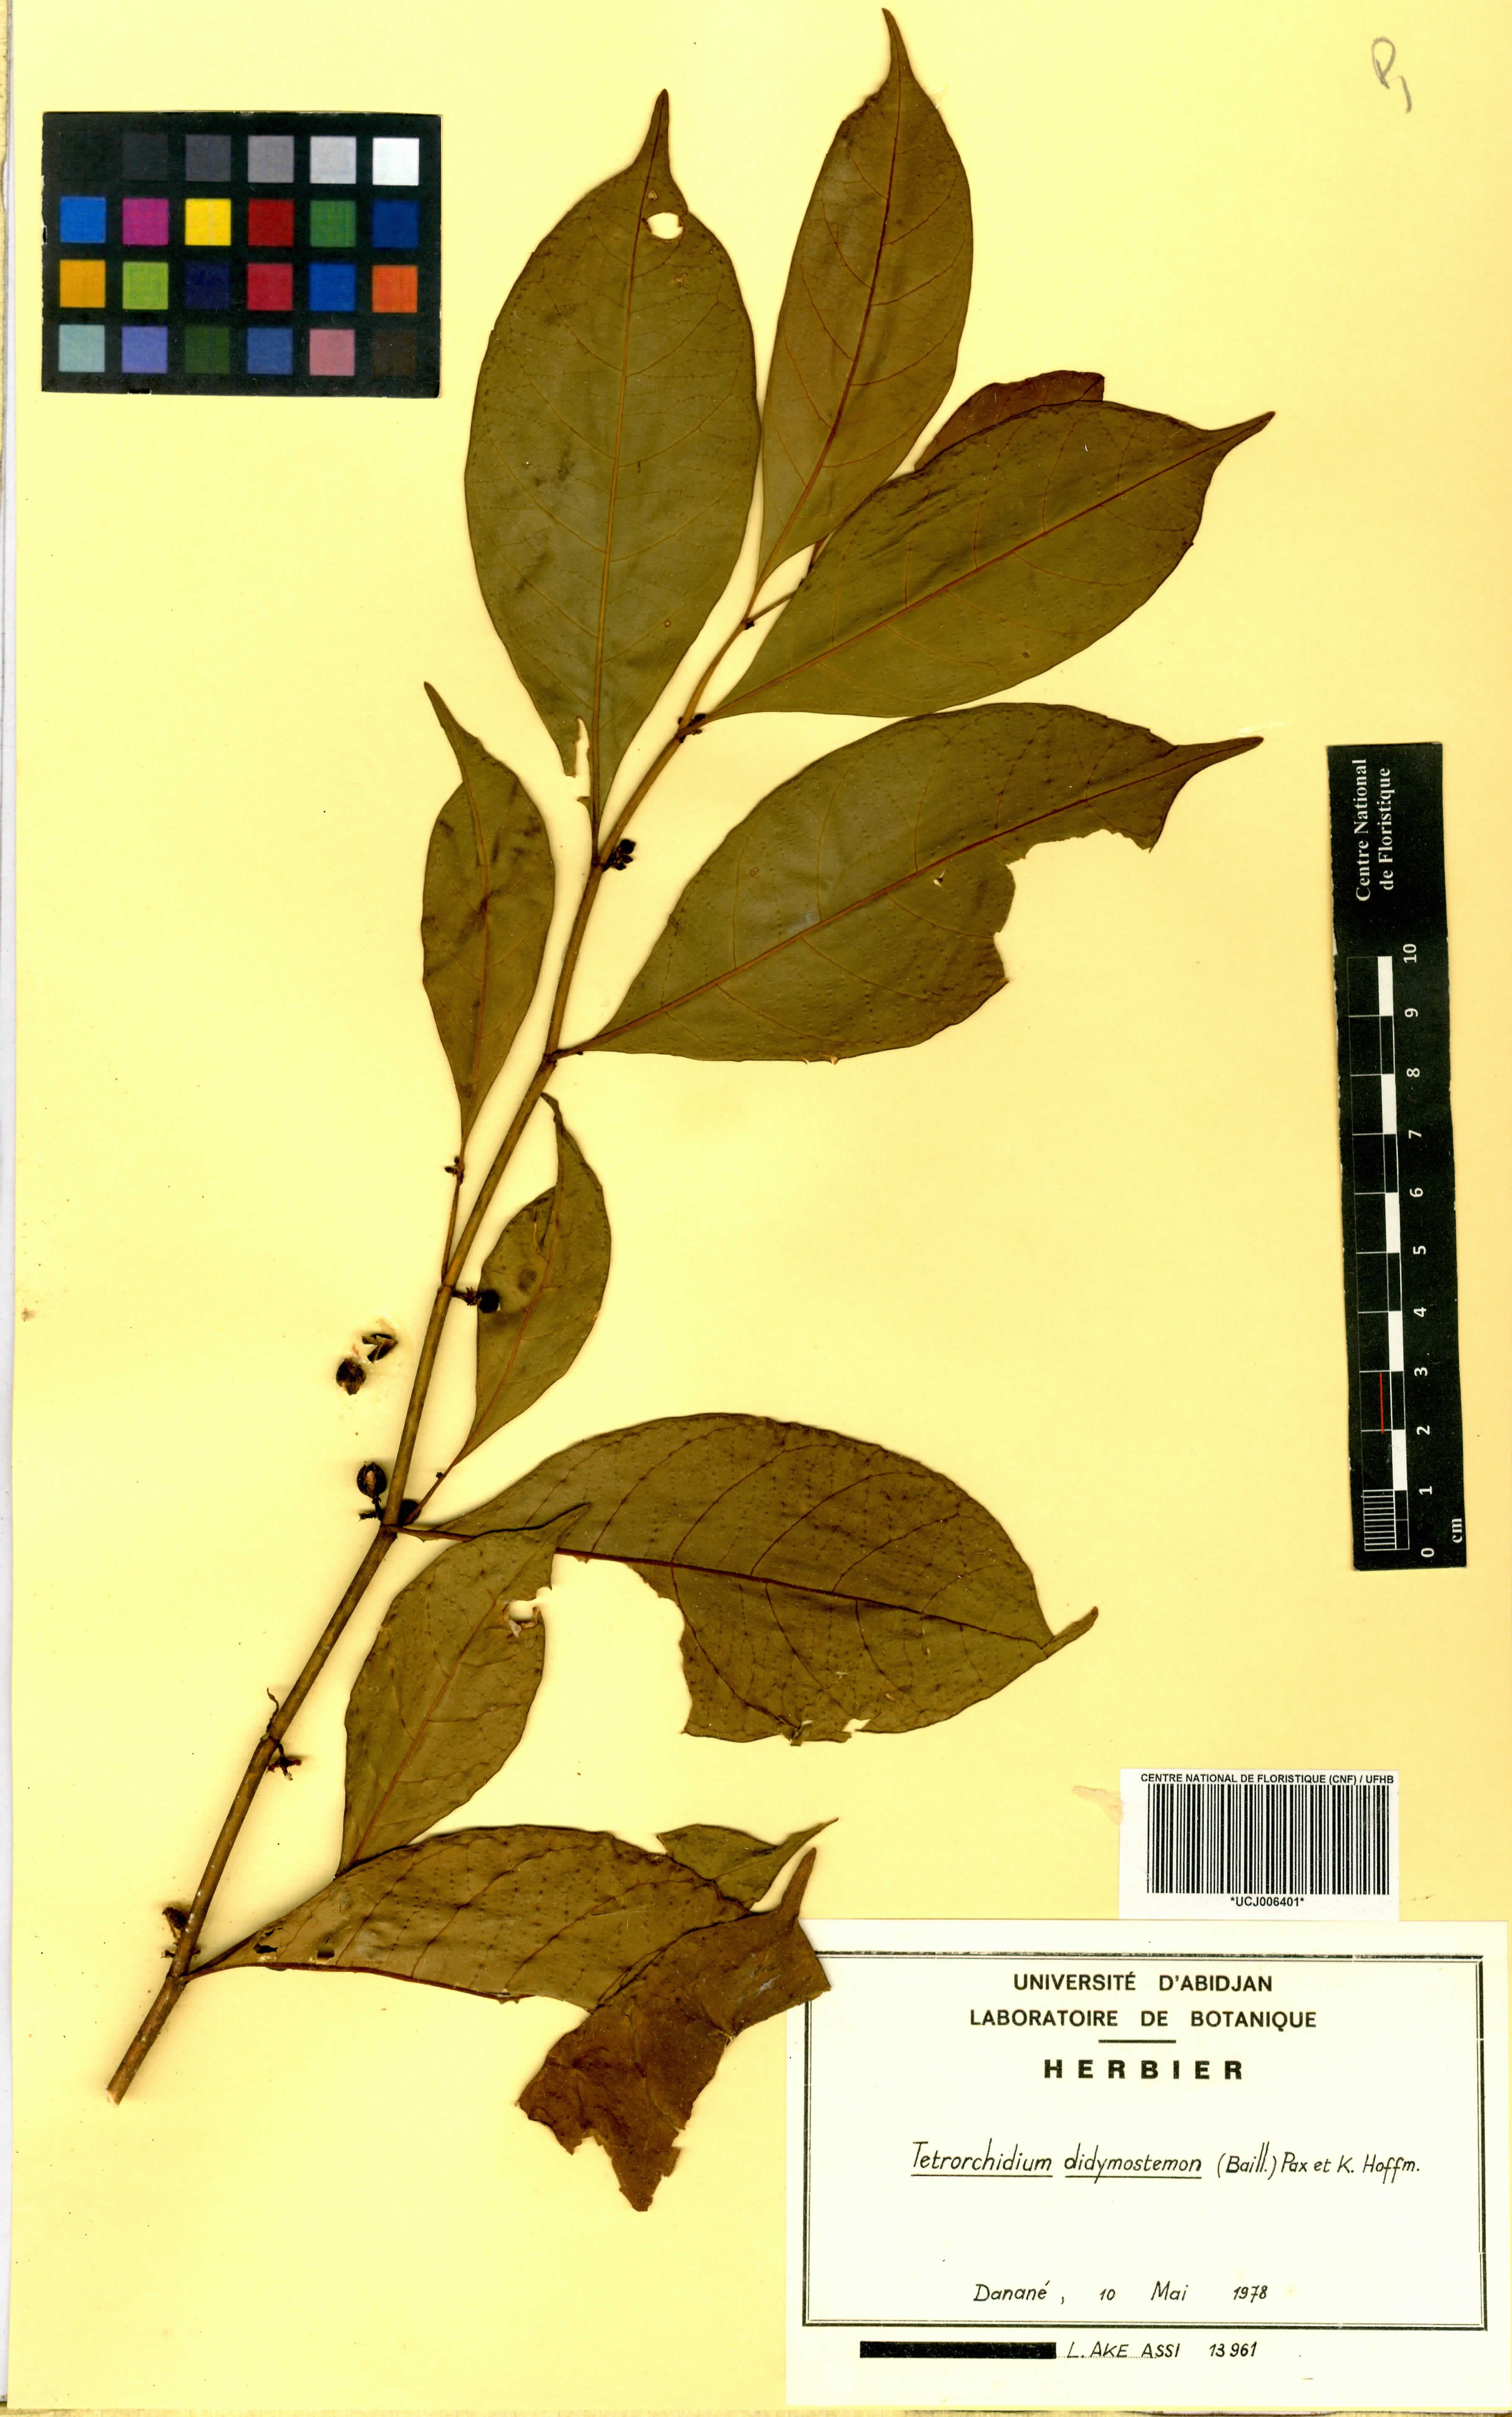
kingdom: Plantae
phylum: Tracheophyta
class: Magnoliopsida
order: Malpighiales
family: Euphorbiaceae
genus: Tetrorchidium
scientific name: Tetrorchidium didymostemon
